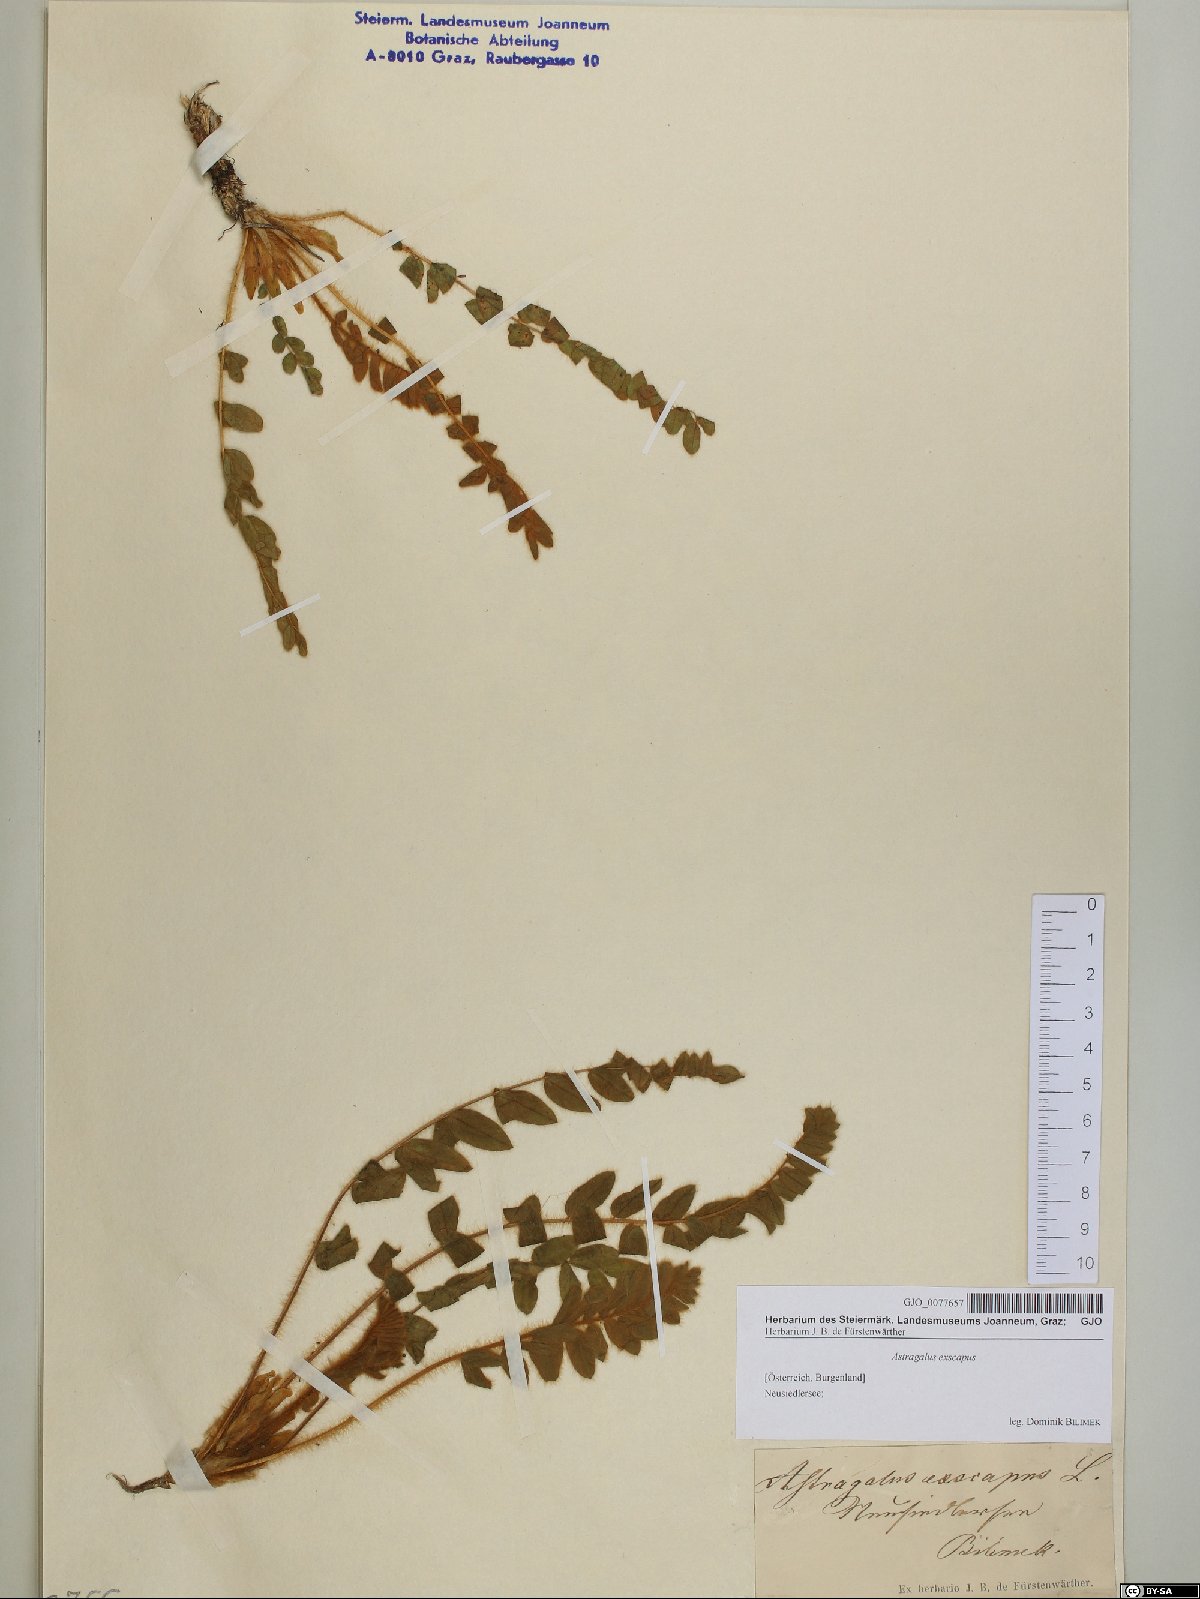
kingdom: Plantae
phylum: Tracheophyta
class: Magnoliopsida
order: Fabales
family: Fabaceae
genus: Astragalus
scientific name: Astragalus exscapus
